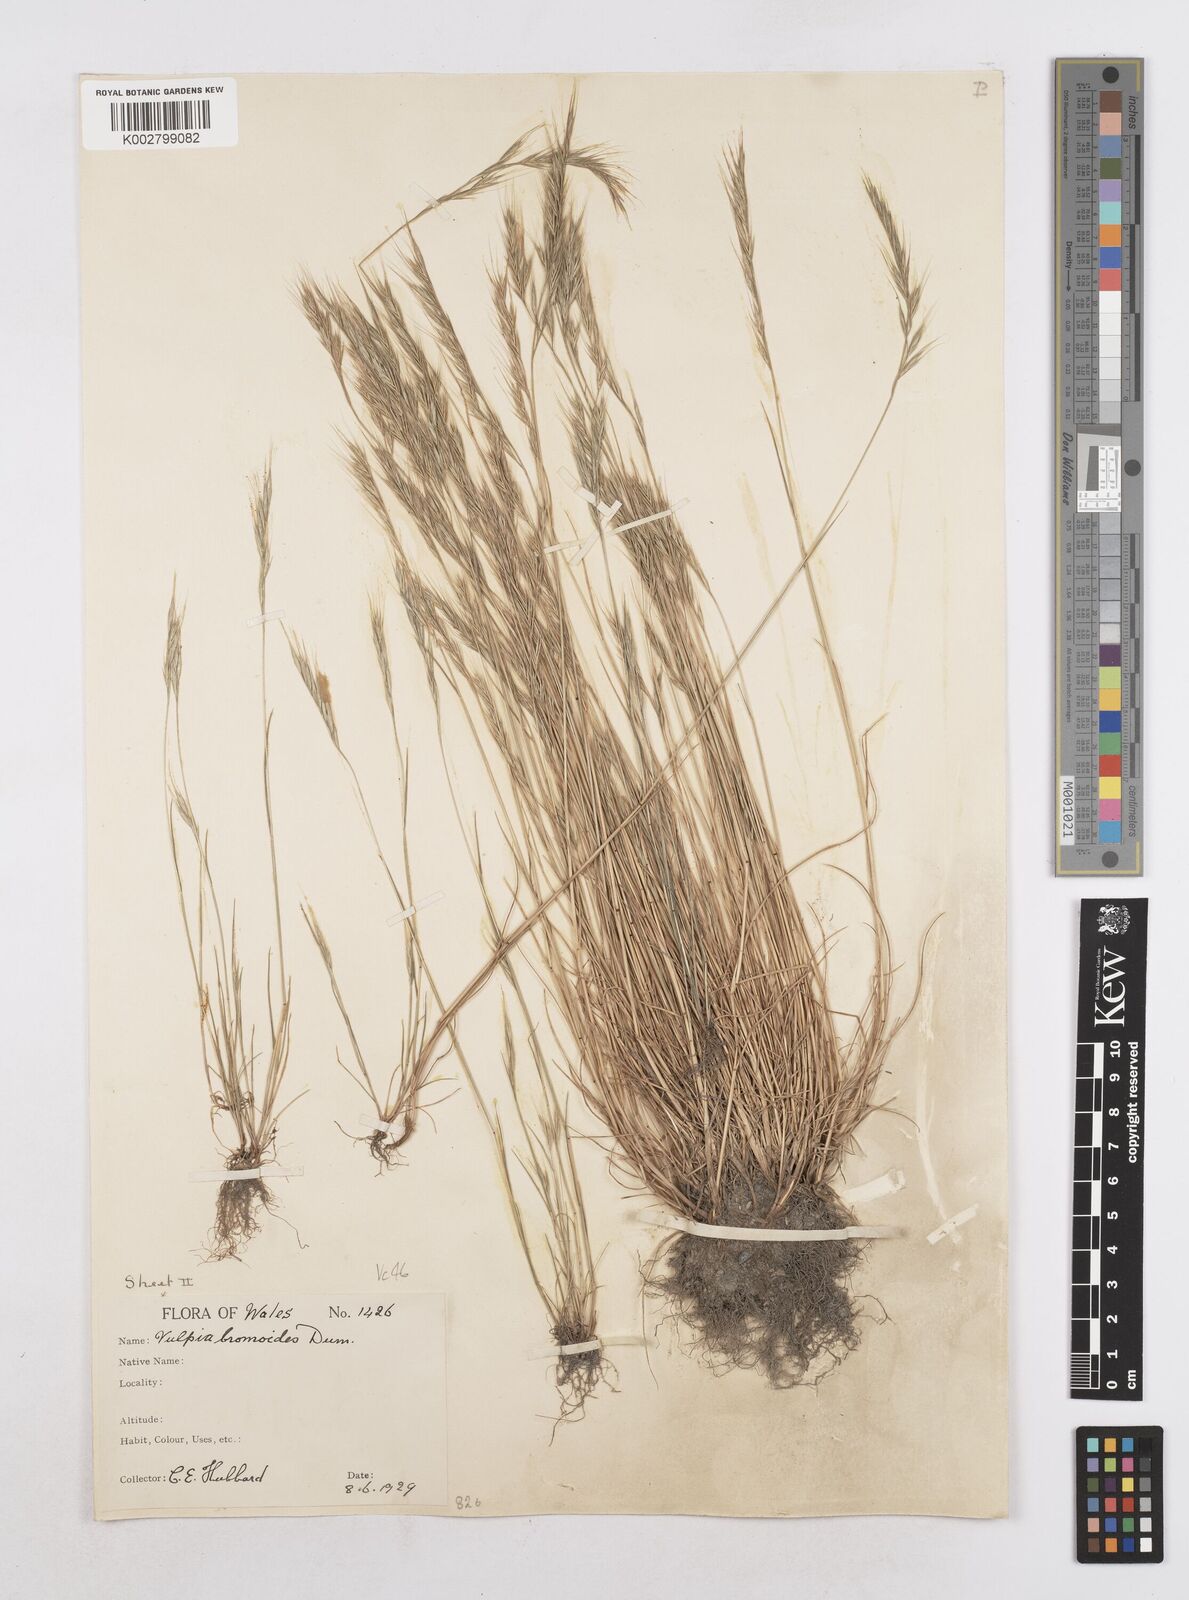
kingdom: Plantae
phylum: Tracheophyta
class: Liliopsida
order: Poales
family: Poaceae
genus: Festuca
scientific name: Festuca bromoides
